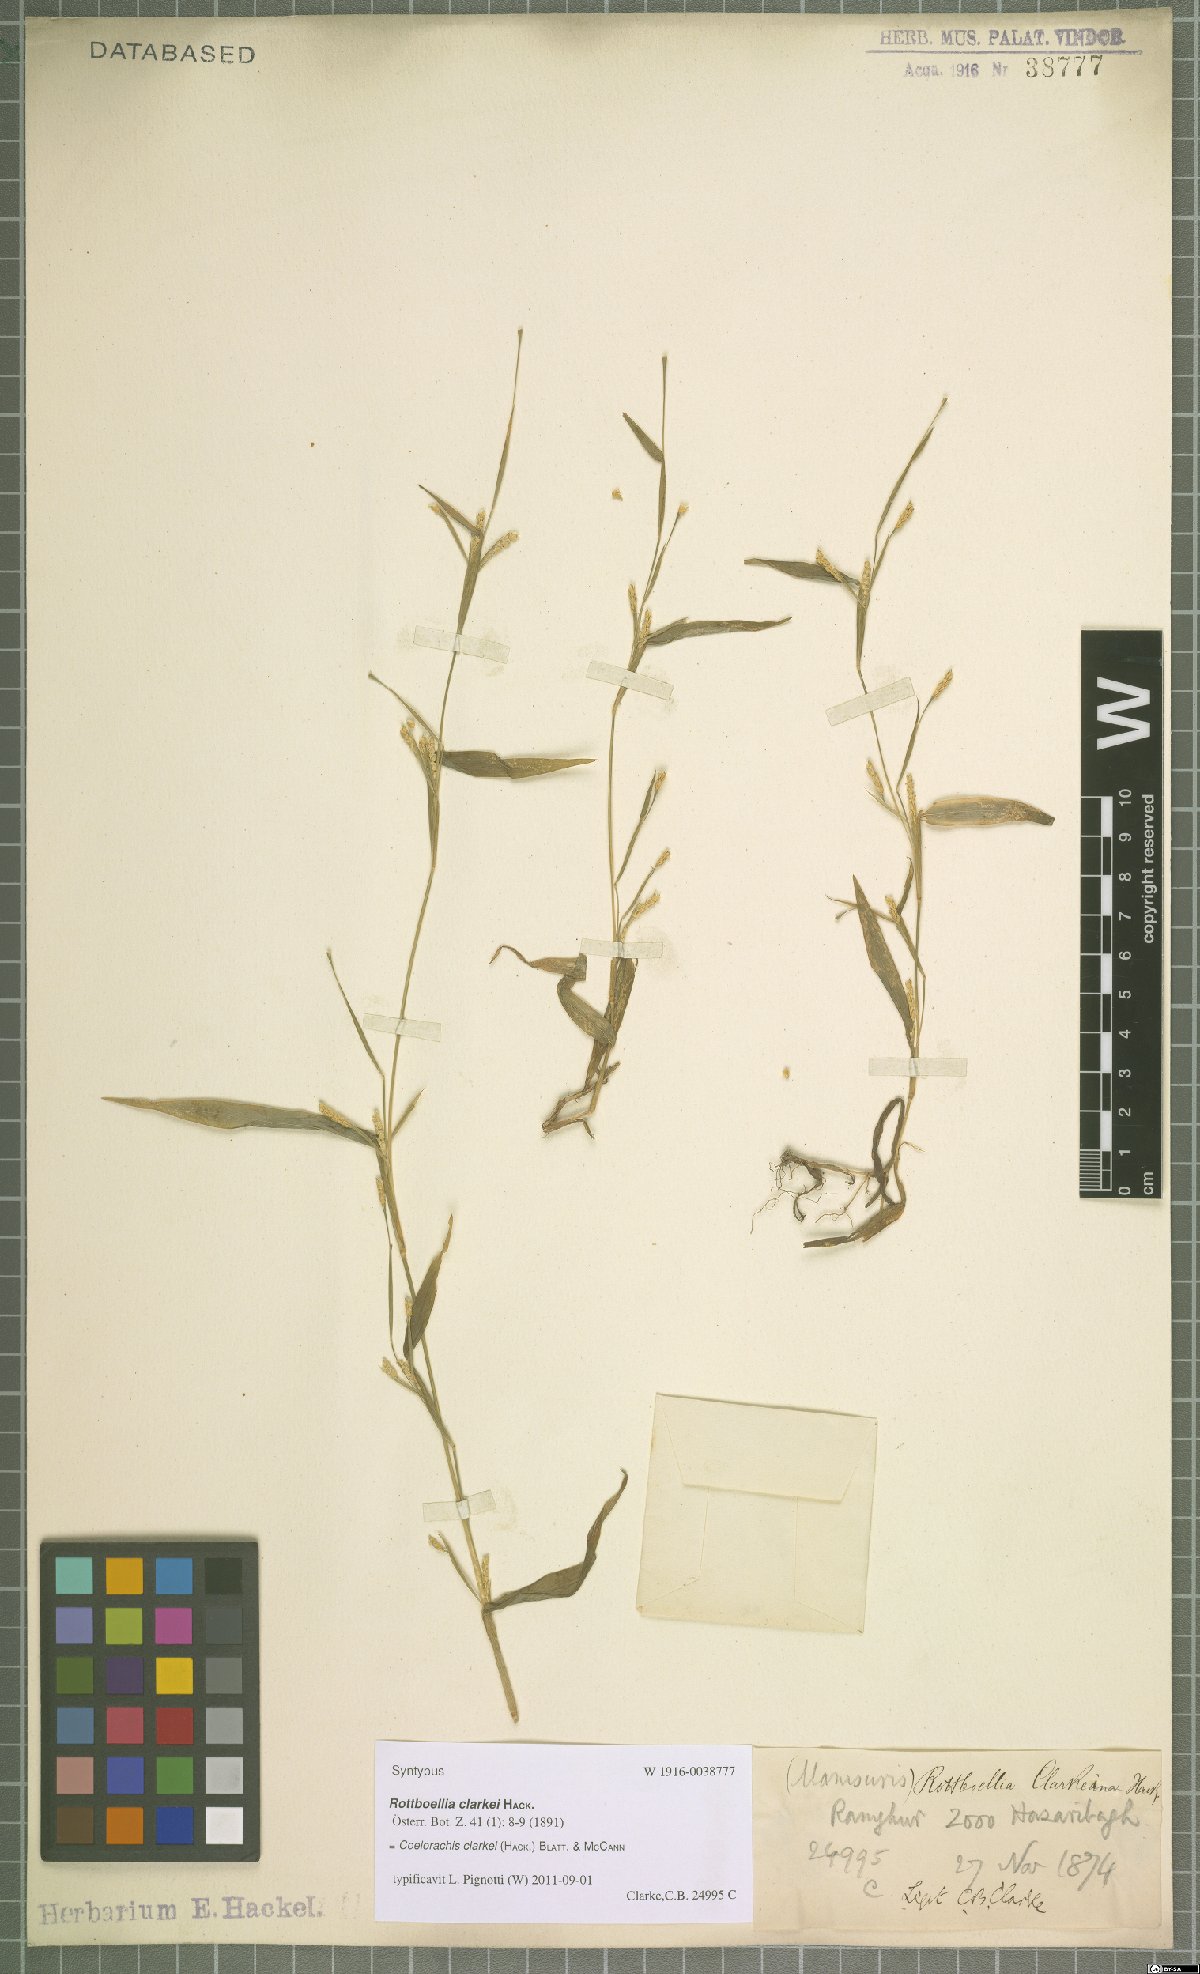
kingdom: Plantae
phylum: Tracheophyta
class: Liliopsida
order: Poales
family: Poaceae
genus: Rottboellia
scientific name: Rottboellia clarkei
